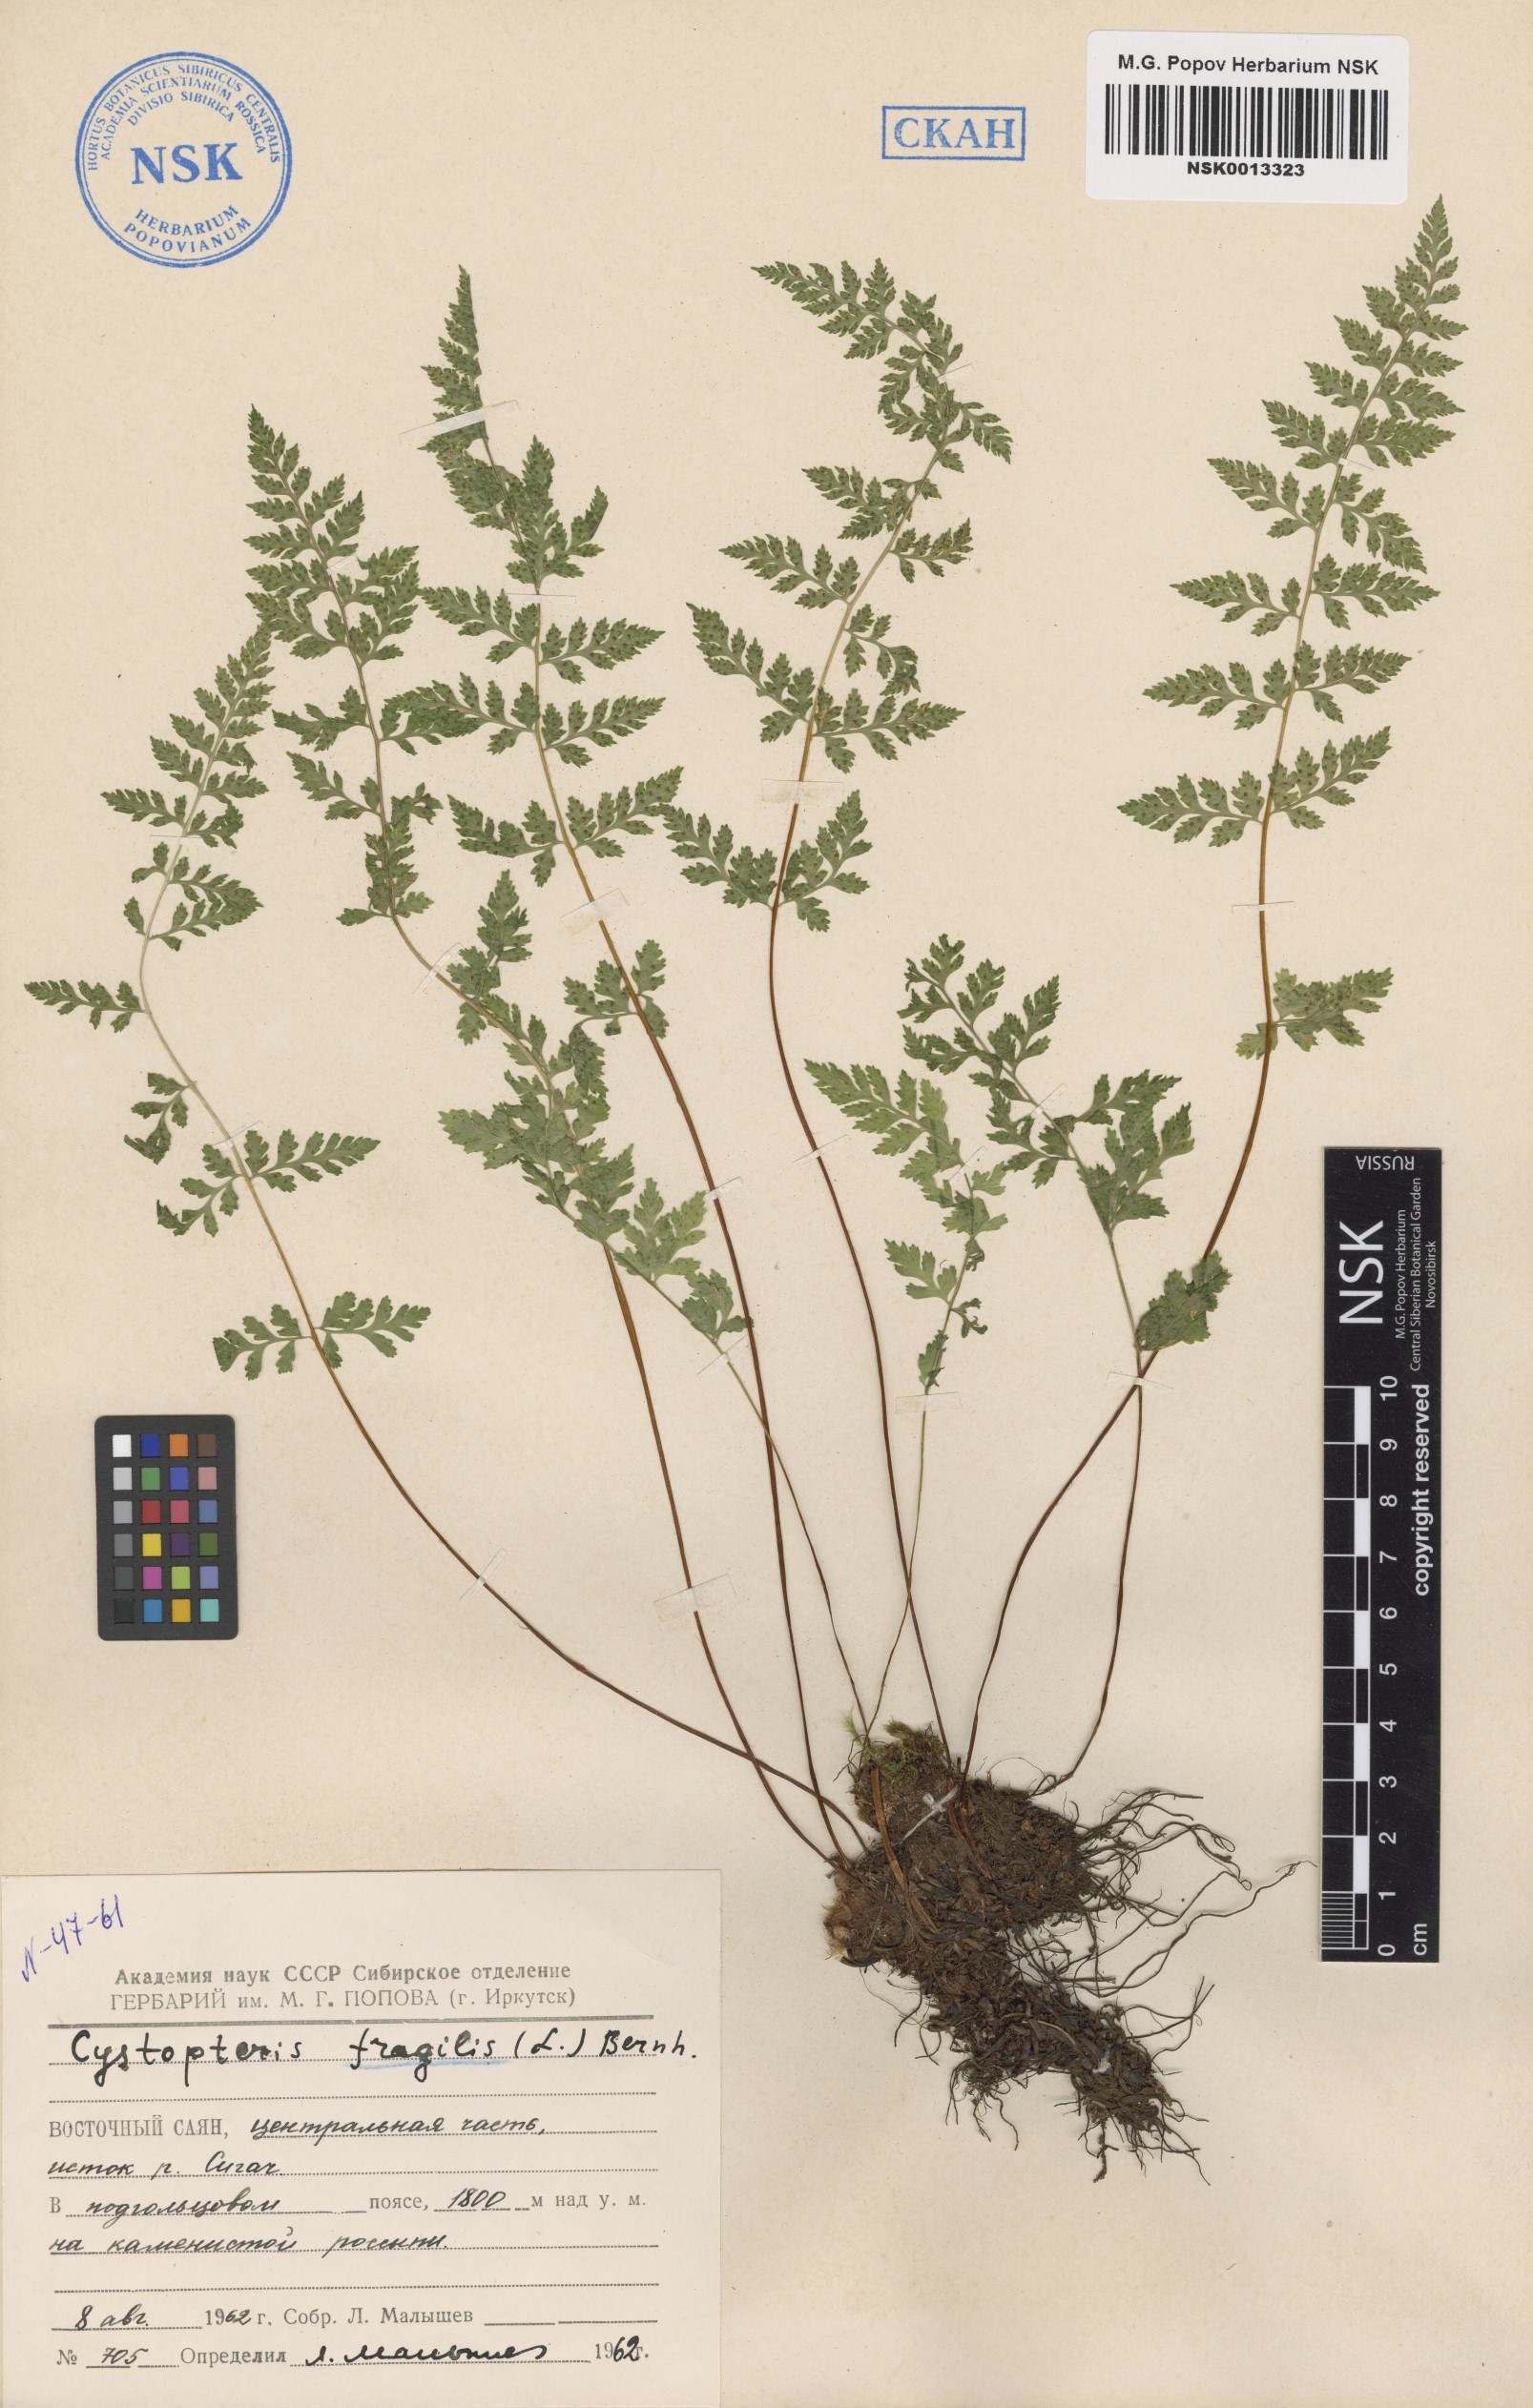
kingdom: Plantae
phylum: Tracheophyta
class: Polypodiopsida
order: Polypodiales
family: Cystopteridaceae
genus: Cystopteris
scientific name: Cystopteris fragilis
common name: Brittle bladder fern
